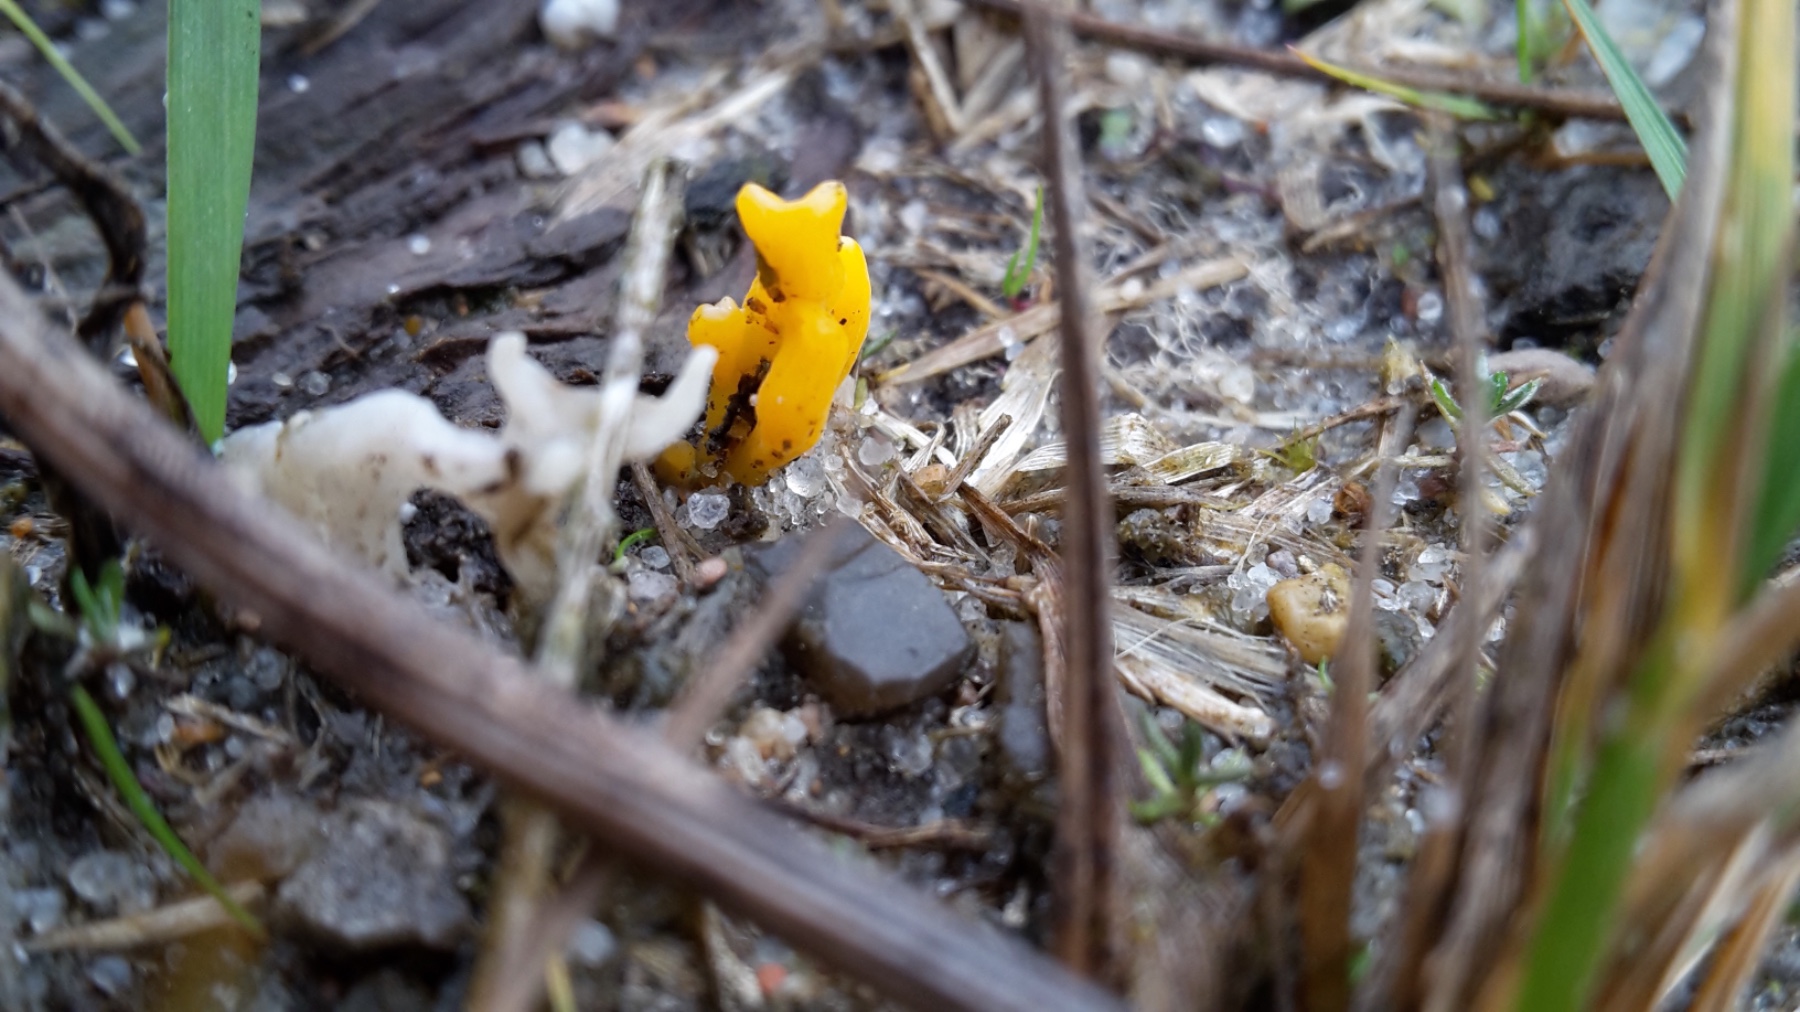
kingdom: Fungi
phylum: Basidiomycota
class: Dacrymycetes
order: Dacrymycetales
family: Dacrymycetaceae
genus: Calocera
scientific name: Calocera furcata
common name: fyrre-guldgaffel
